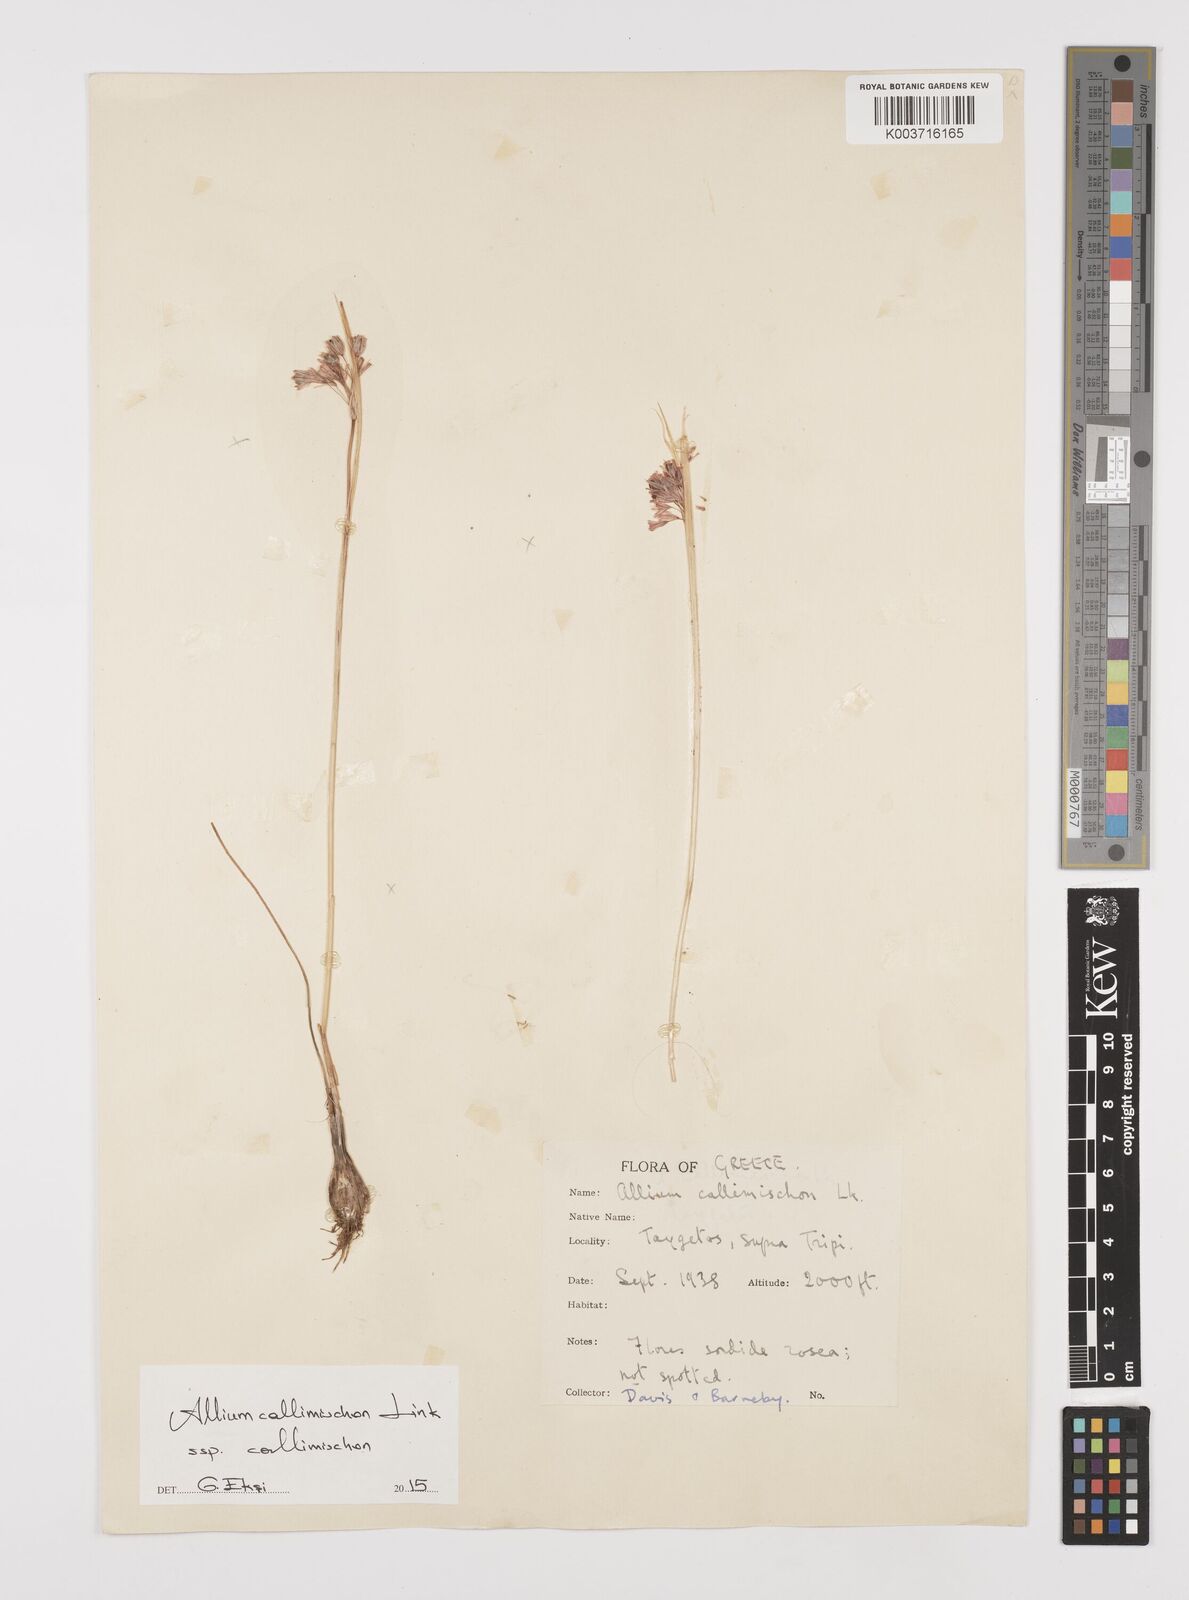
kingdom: Plantae
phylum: Tracheophyta
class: Liliopsida
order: Asparagales
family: Amaryllidaceae
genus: Allium
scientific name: Allium callimischon
